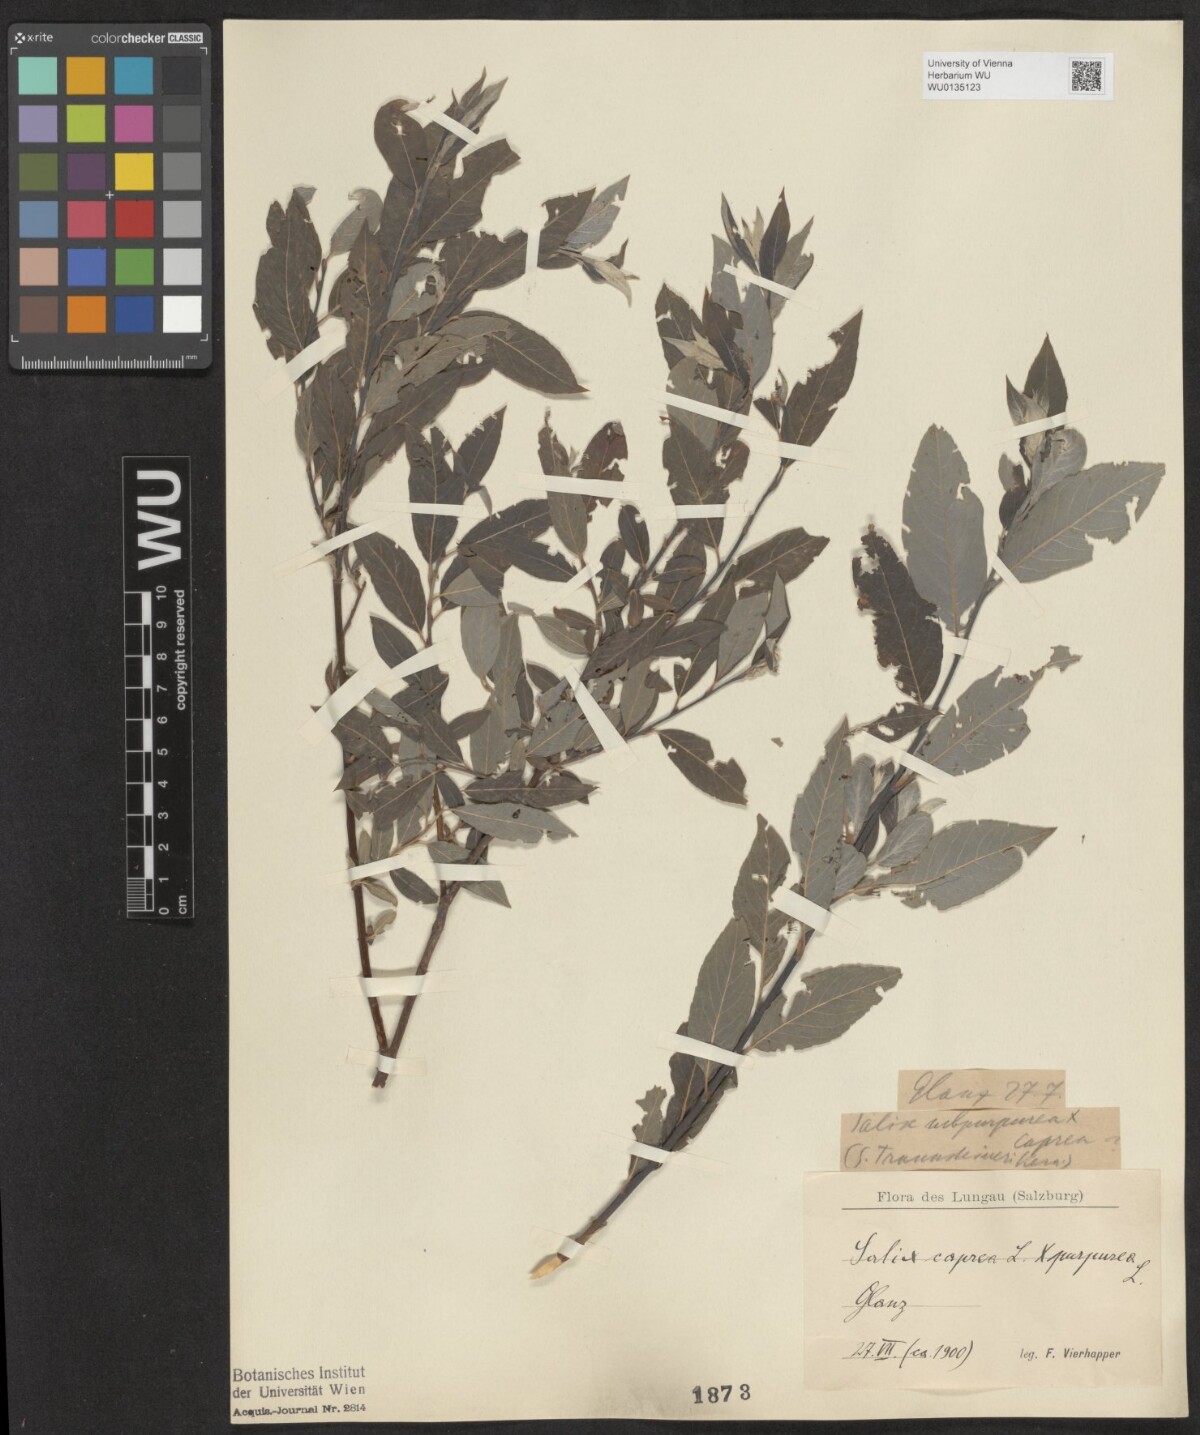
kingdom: Plantae
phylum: Tracheophyta
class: Magnoliopsida
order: Malpighiales
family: Salicaceae
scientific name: Salicaceae
